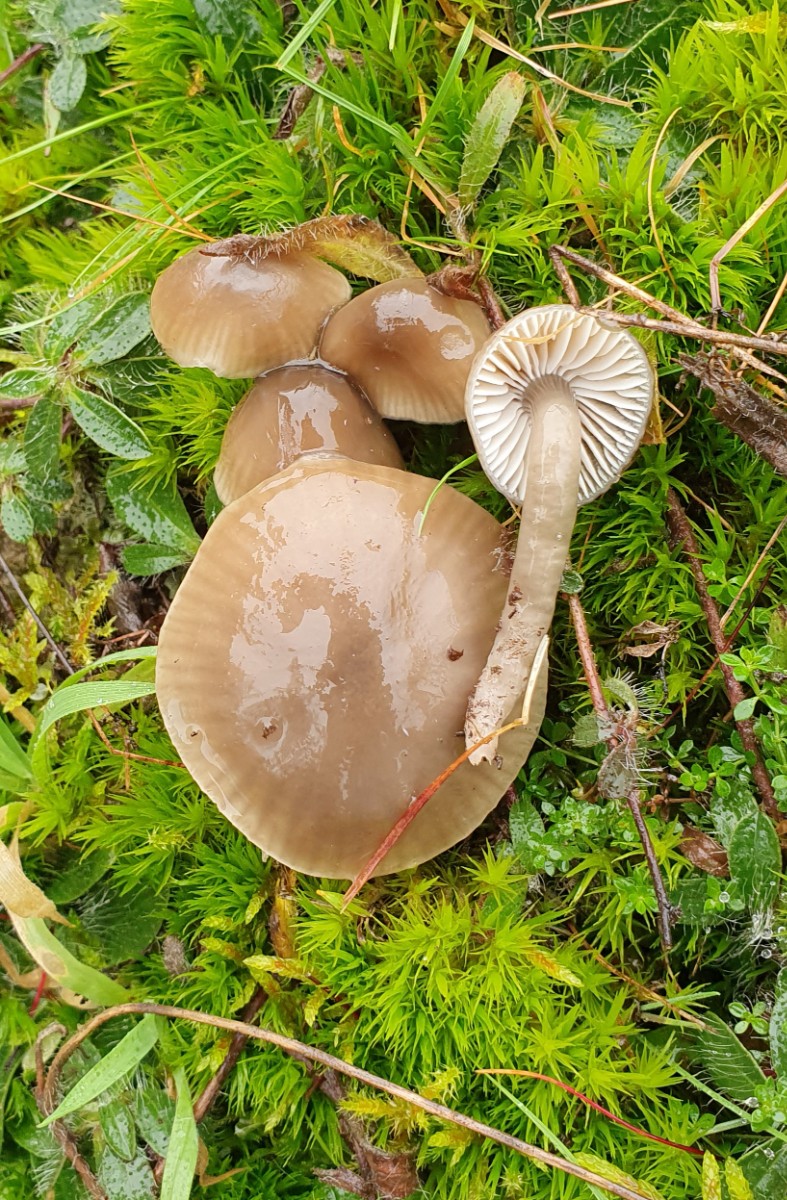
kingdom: Fungi
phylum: Basidiomycota
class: Agaricomycetes
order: Agaricales
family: Hygrophoraceae
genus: Gliophorus
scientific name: Gliophorus irrigatus
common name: slimet vokshat
